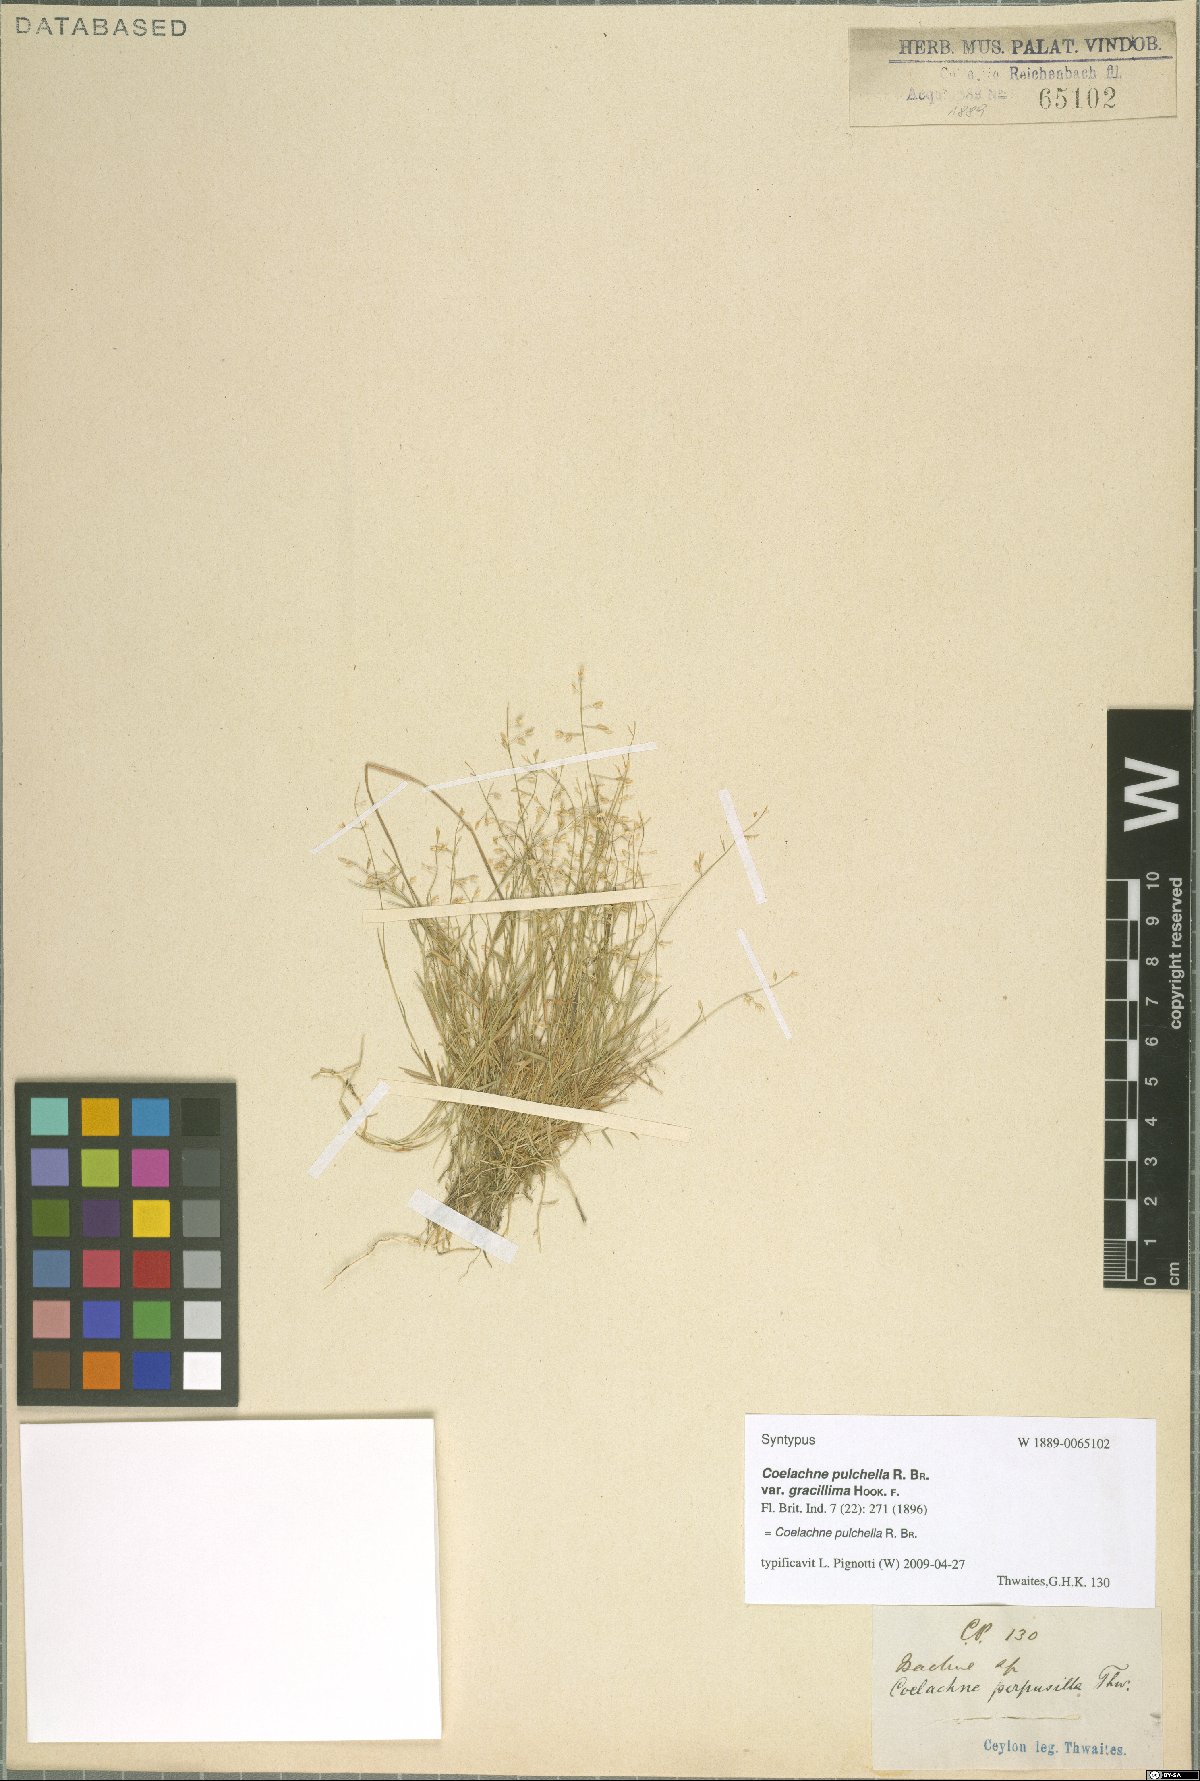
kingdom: Plantae
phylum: Tracheophyta
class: Liliopsida
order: Poales
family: Poaceae
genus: Coelachne
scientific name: Coelachne pulchella
